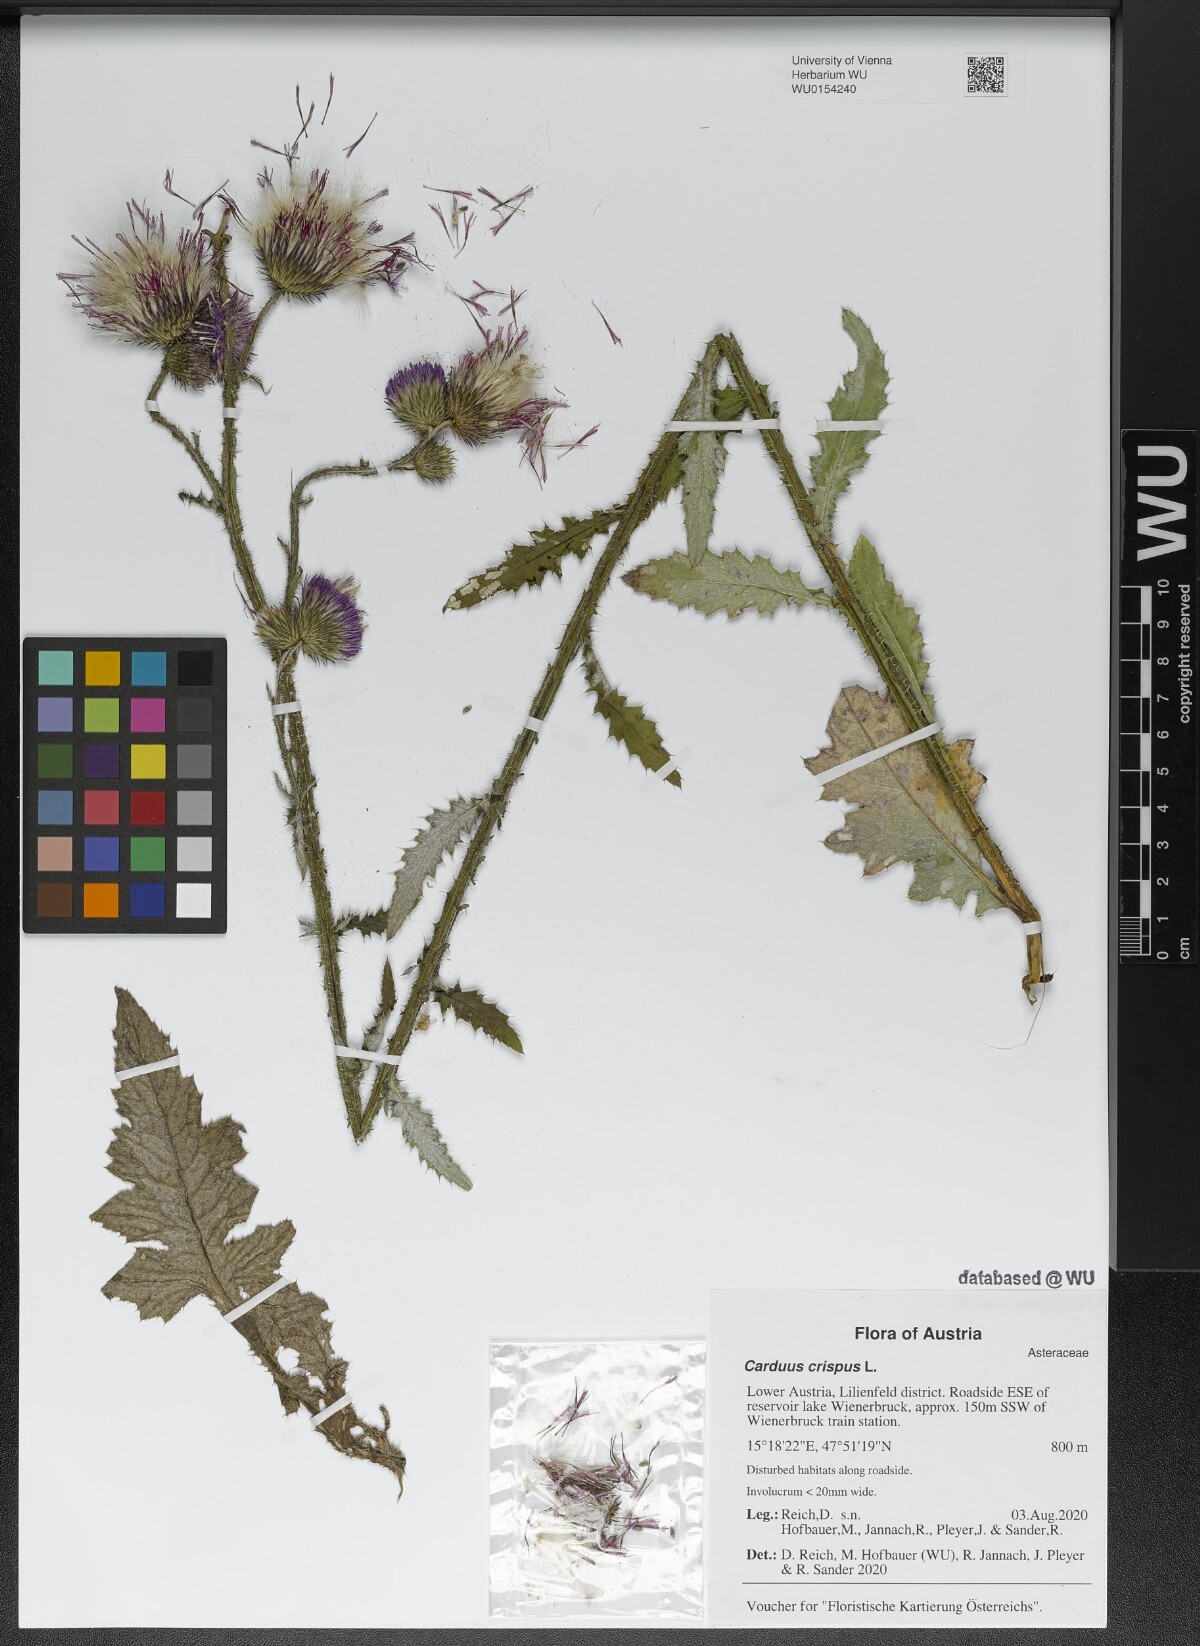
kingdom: Plantae
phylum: Tracheophyta
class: Magnoliopsida
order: Asterales
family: Asteraceae
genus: Carduus
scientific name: Carduus crispus
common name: Welted thistle
